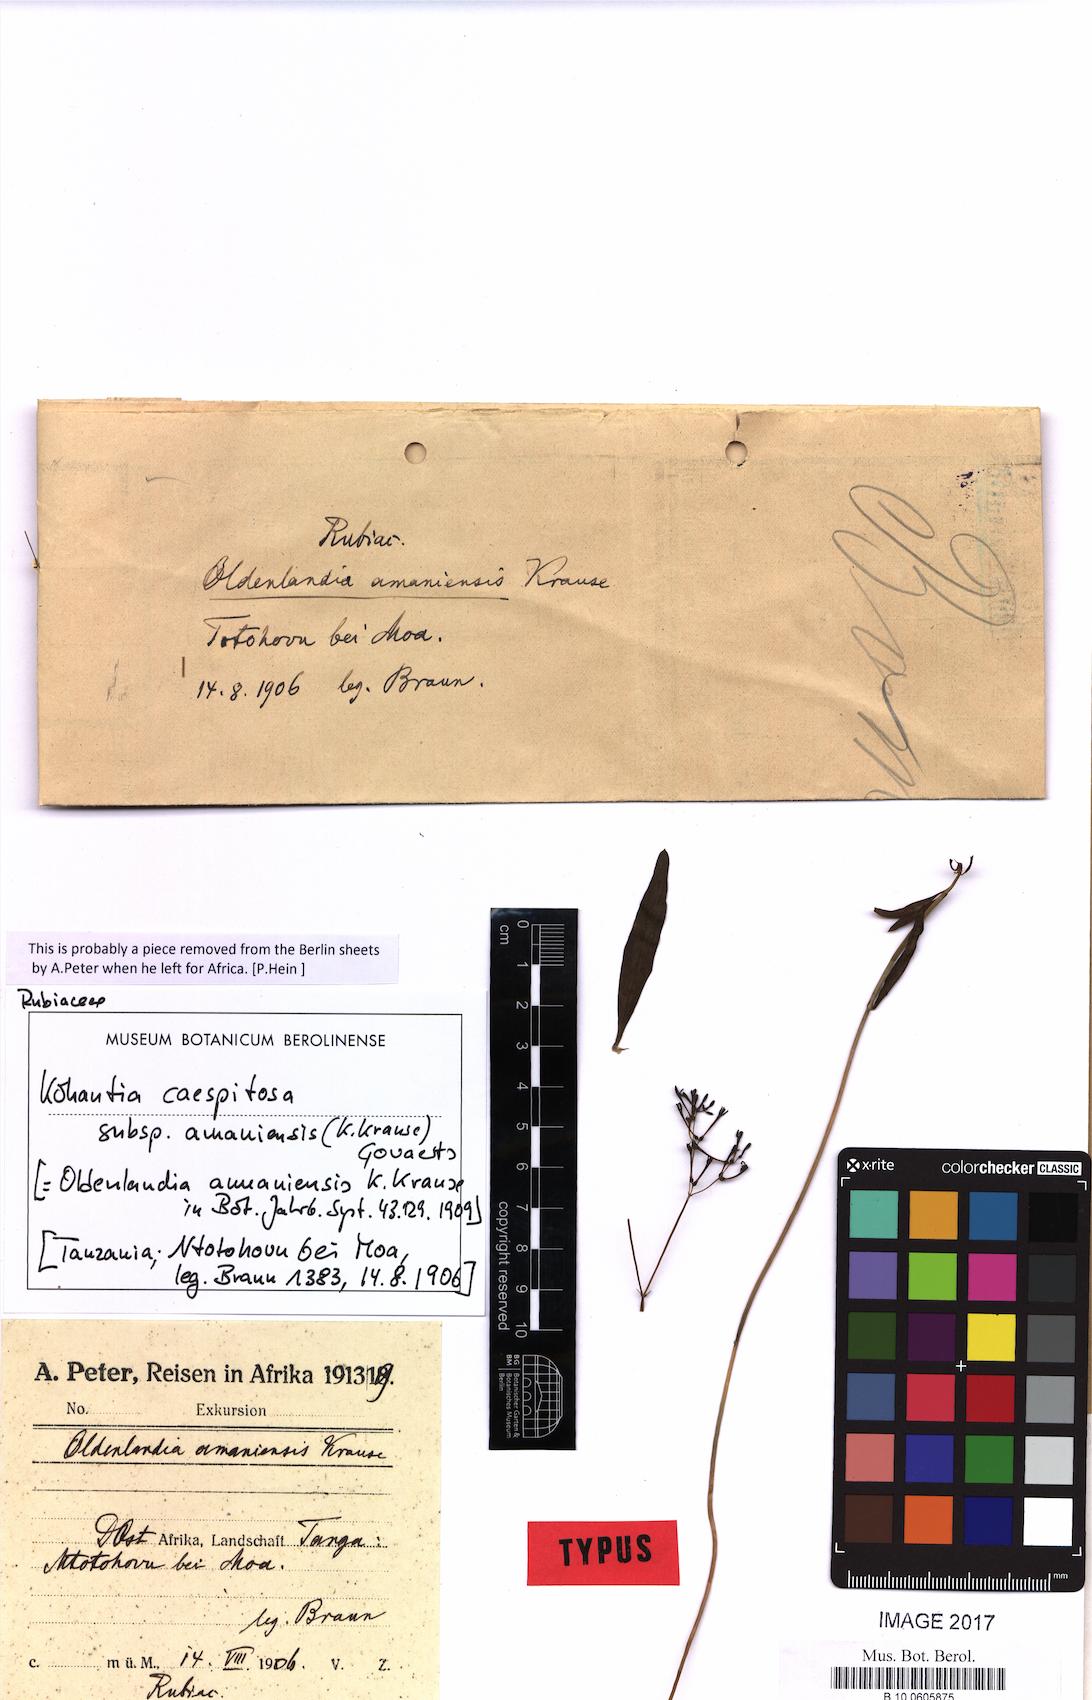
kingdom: Plantae
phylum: Tracheophyta
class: Magnoliopsida
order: Gentianales
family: Rubiaceae
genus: Kohautia
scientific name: Kohautia caespitosa
